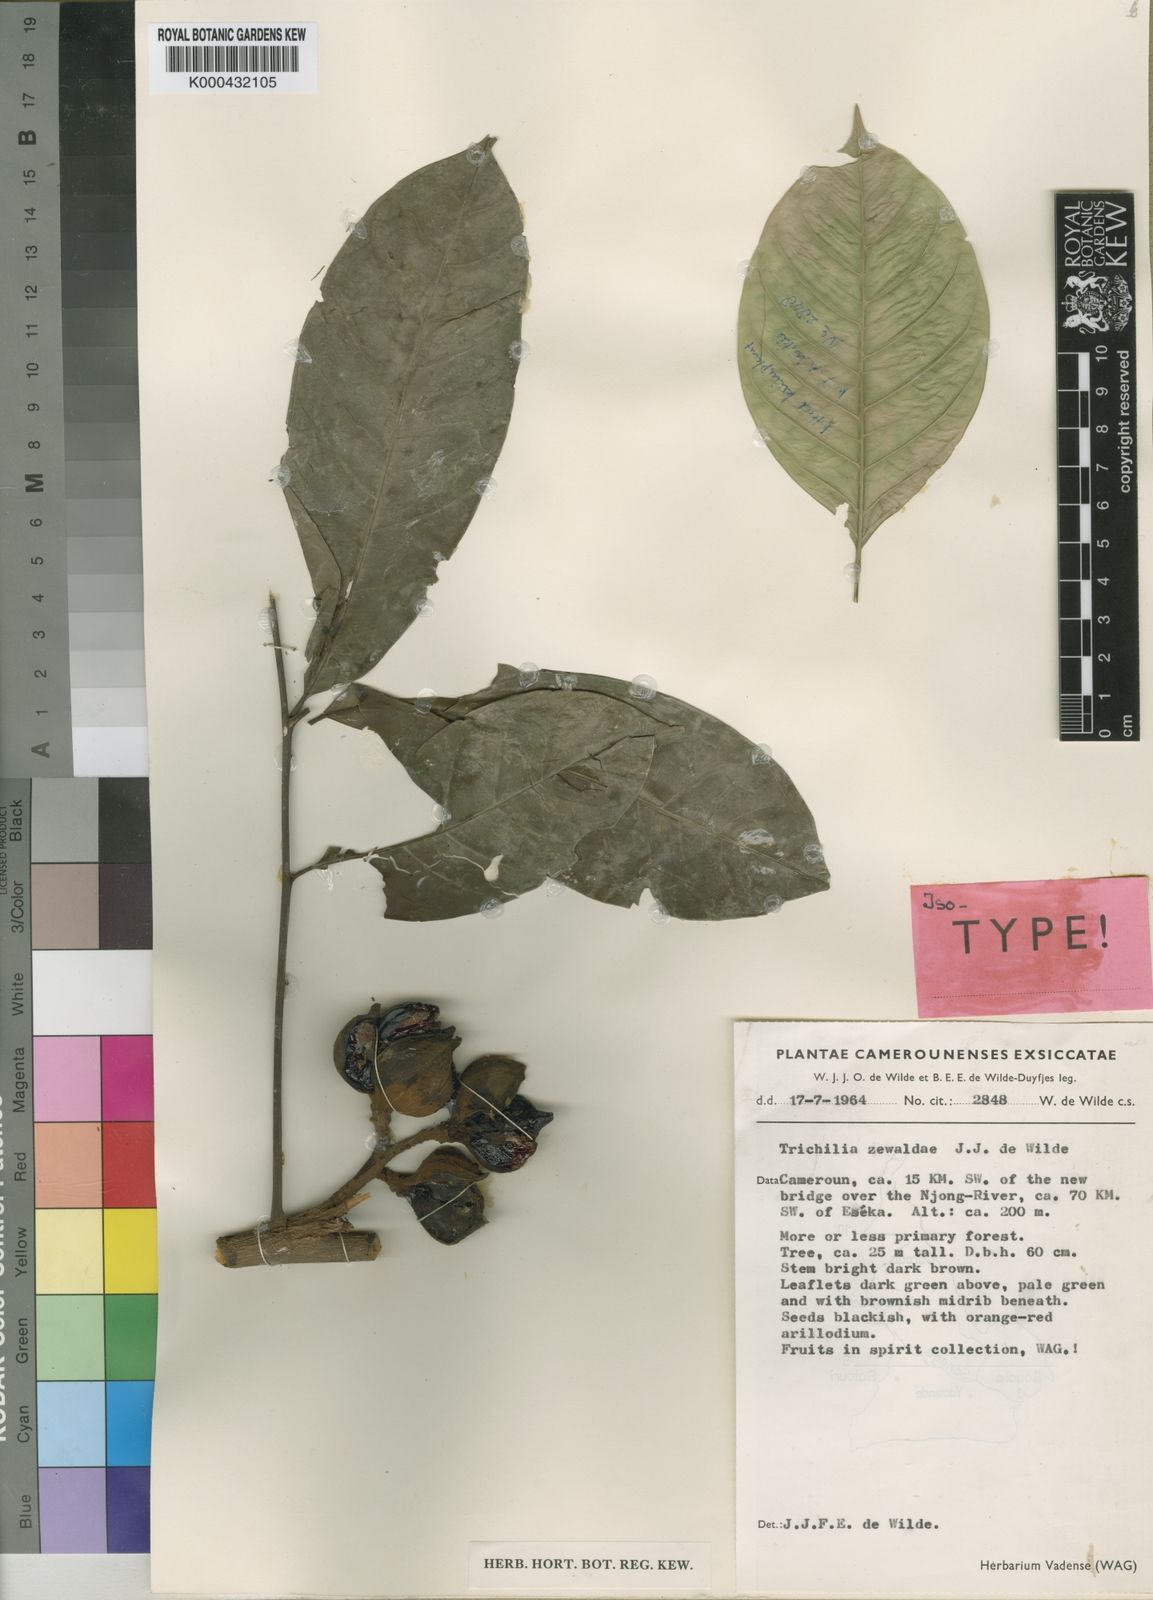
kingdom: Plantae
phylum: Tracheophyta
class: Magnoliopsida
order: Sapindales
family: Meliaceae
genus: Trichilia
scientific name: Trichilia zewaldae
